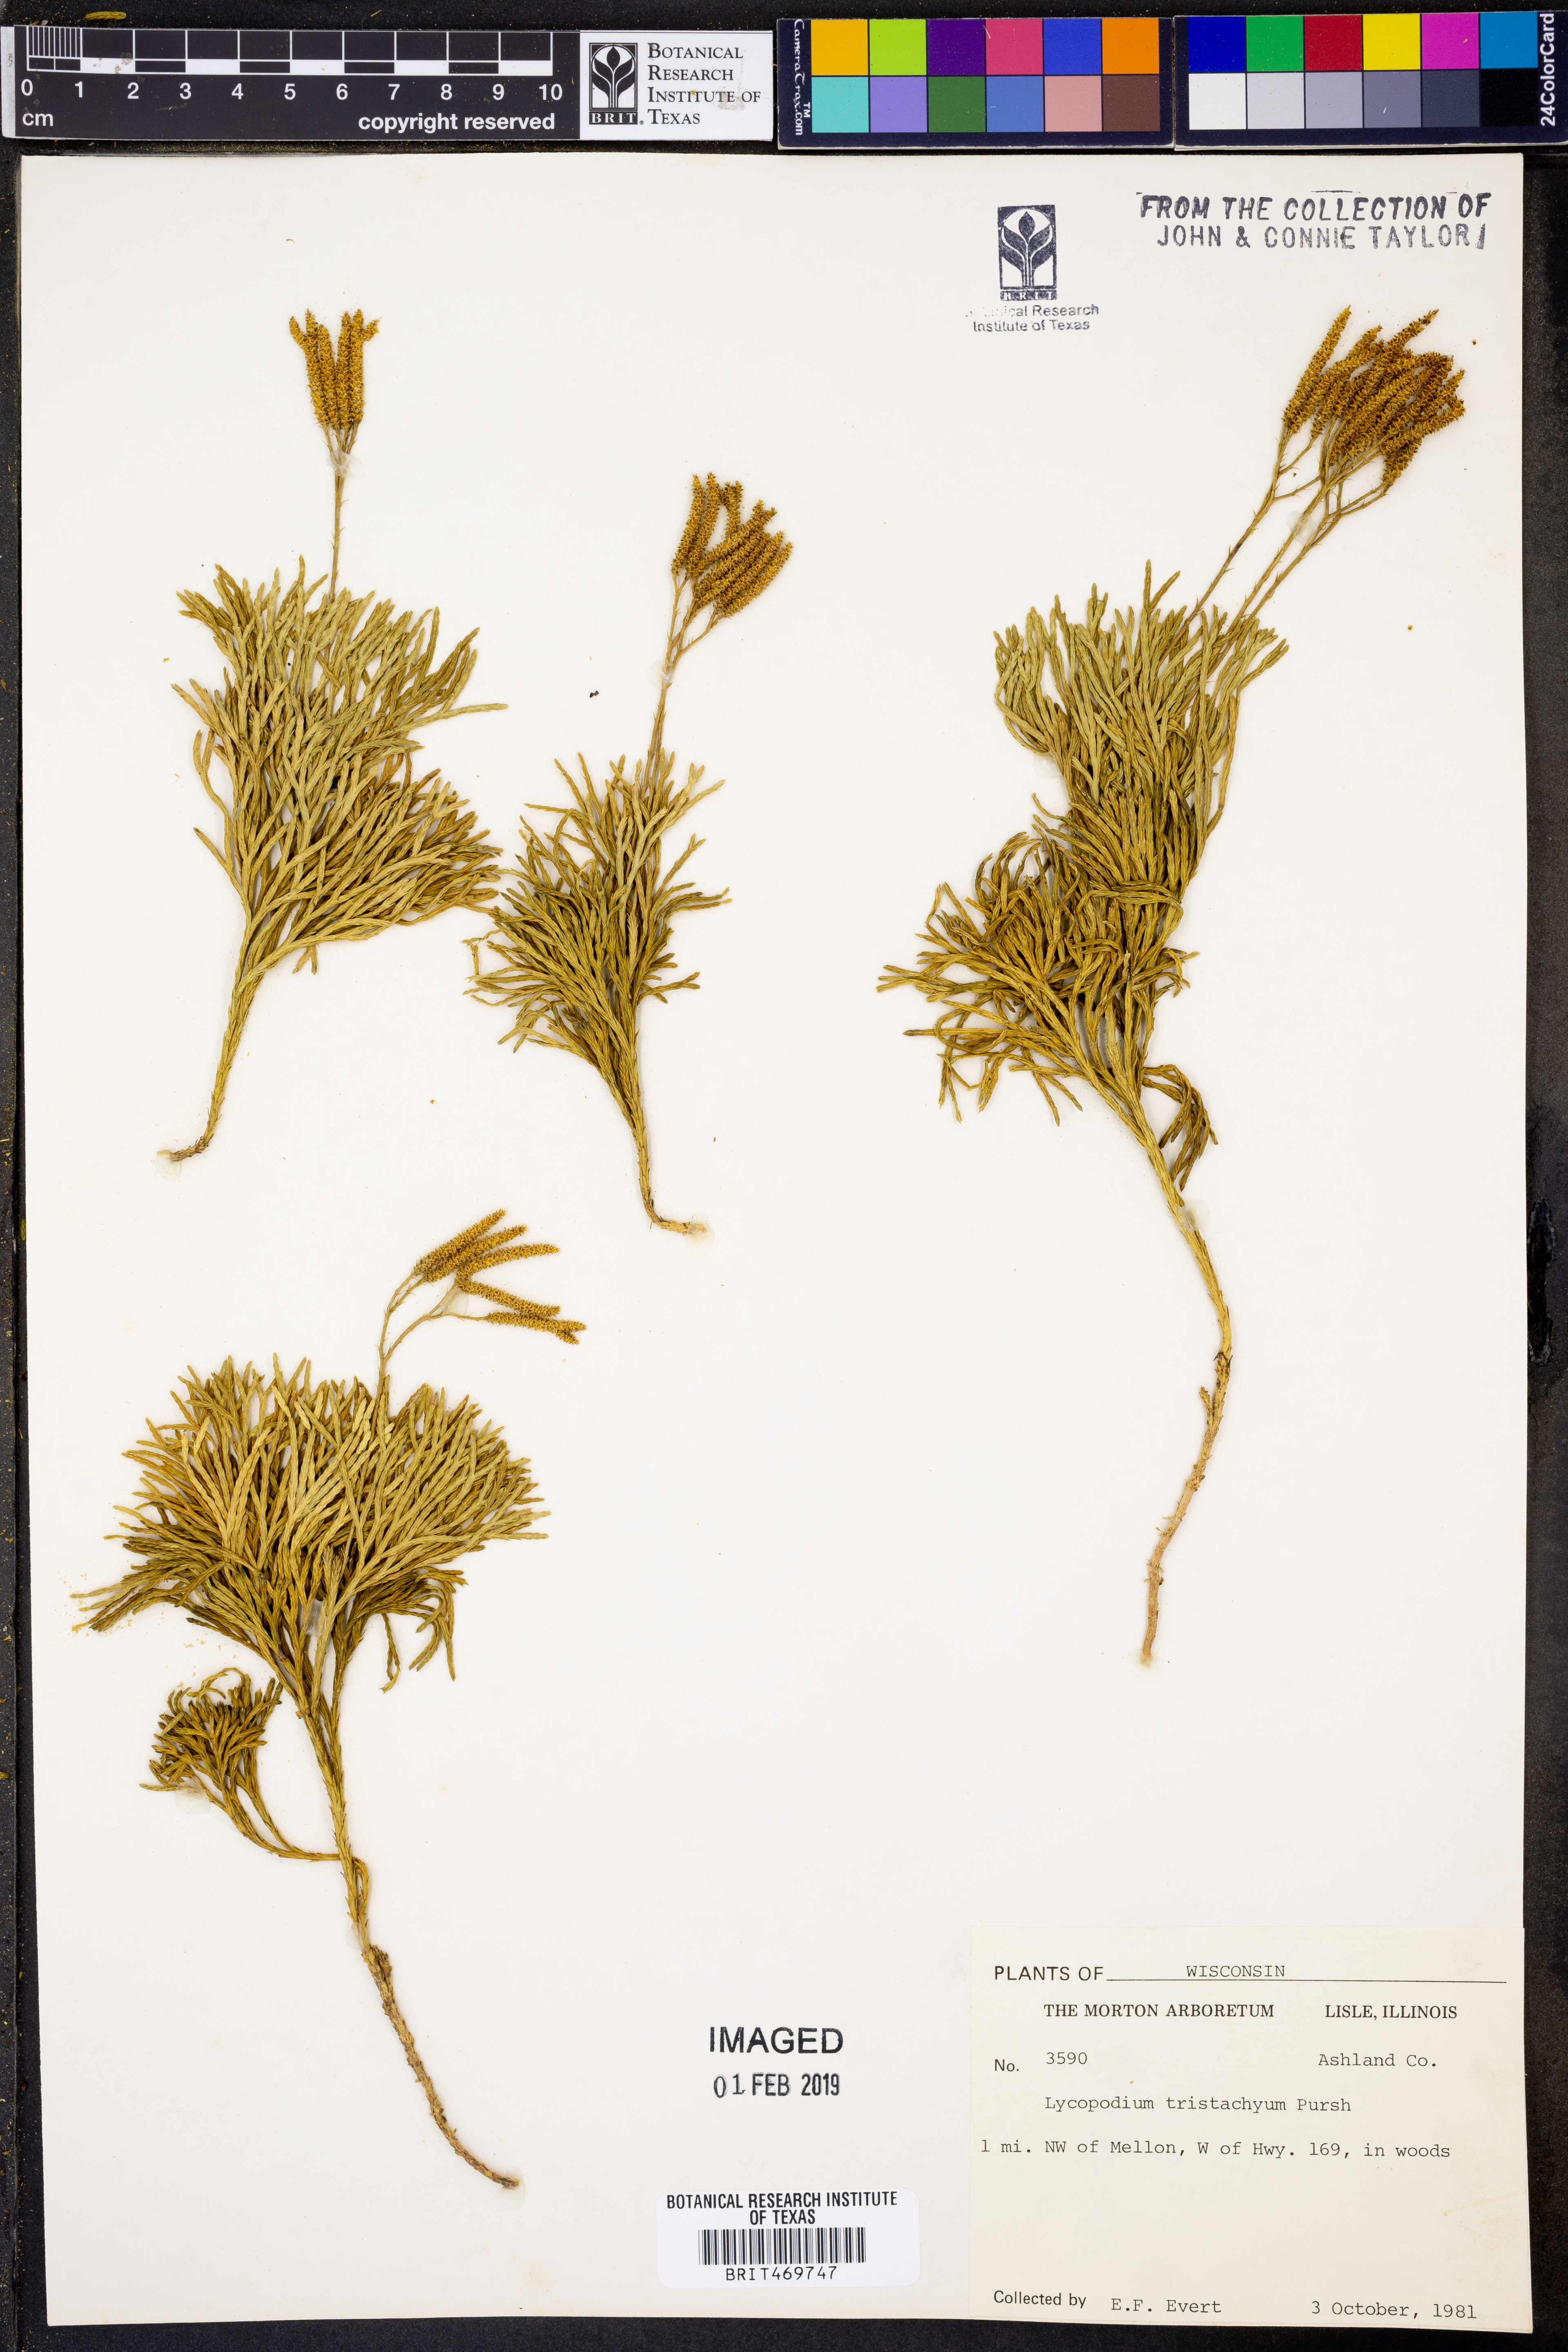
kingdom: Plantae
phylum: Tracheophyta
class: Lycopodiopsida
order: Lycopodiales
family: Lycopodiaceae
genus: Diphasiastrum
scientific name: Diphasiastrum tristachyum
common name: Blue ground-cedar
